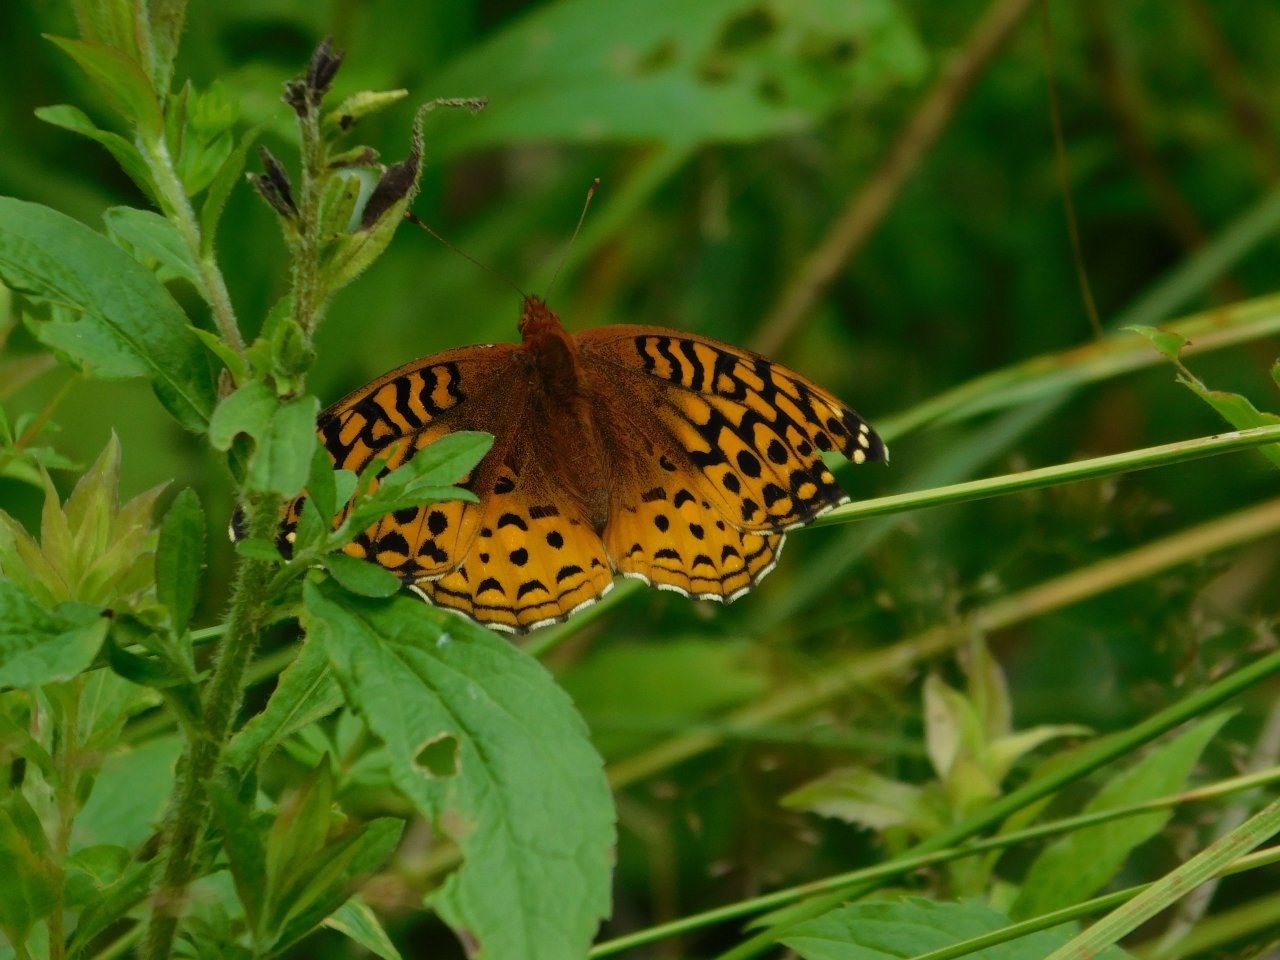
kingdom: Animalia
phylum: Arthropoda
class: Insecta
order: Lepidoptera
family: Nymphalidae
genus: Speyeria
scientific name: Speyeria cybele
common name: Great Spangled Fritillary
